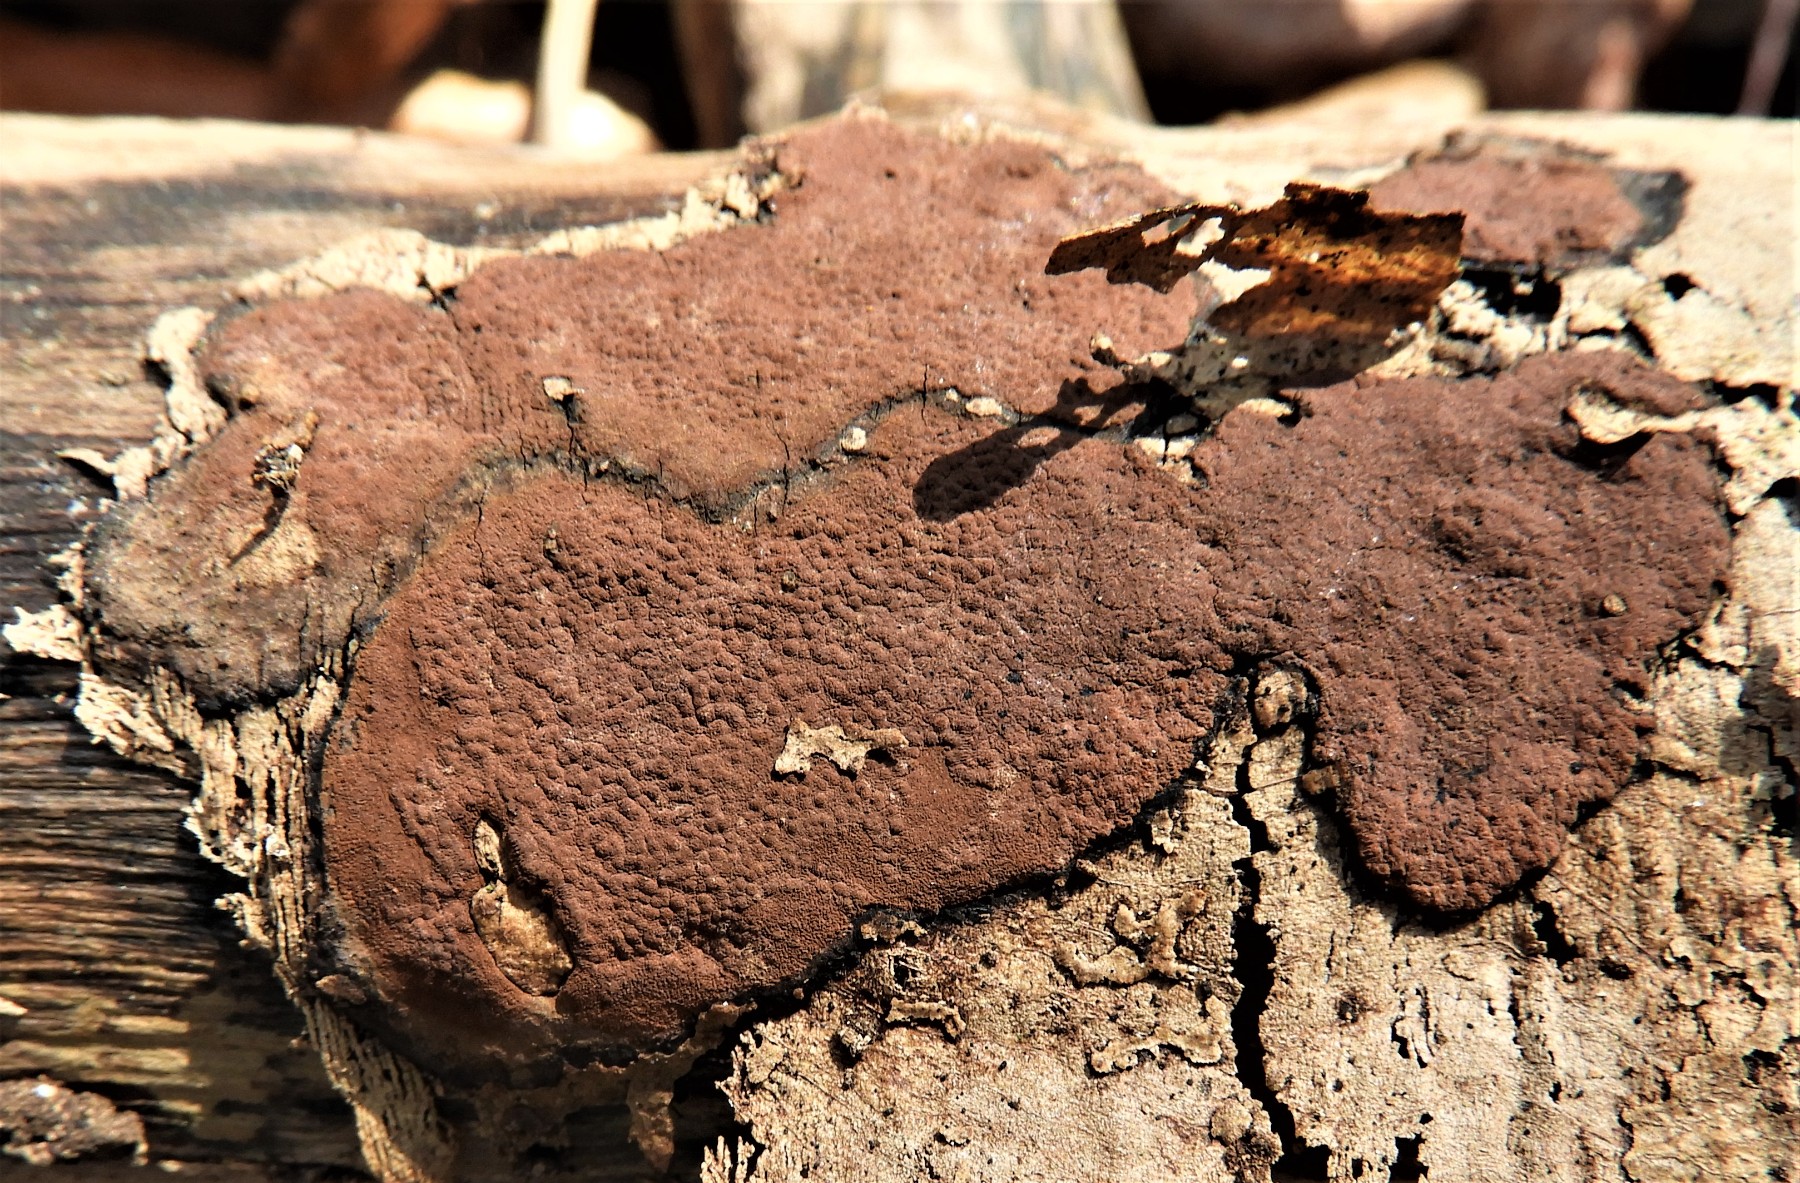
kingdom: Fungi
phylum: Ascomycota
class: Sordariomycetes
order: Xylariales
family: Hypoxylaceae
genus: Hypoxylon
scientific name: Hypoxylon petriniae
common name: nedsænket kulbær
